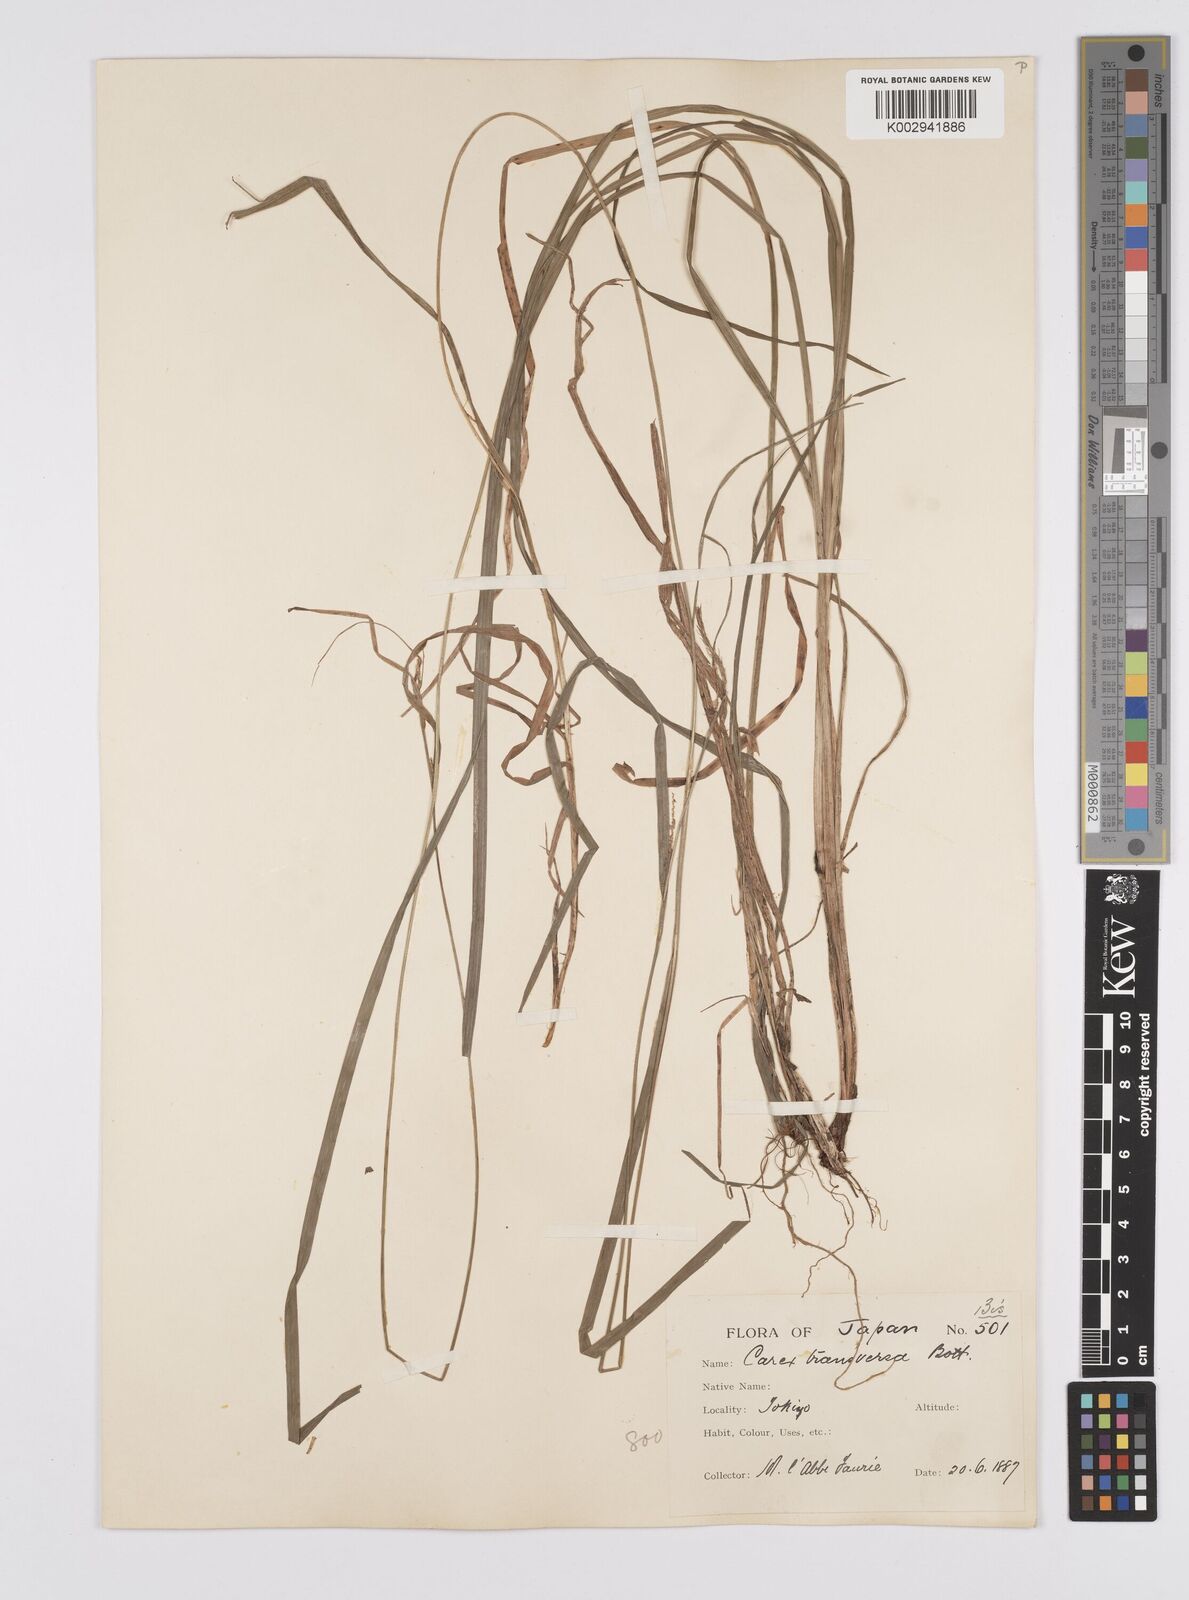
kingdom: Plantae
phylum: Tracheophyta
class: Liliopsida
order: Poales
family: Cyperaceae
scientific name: Cyperaceae
